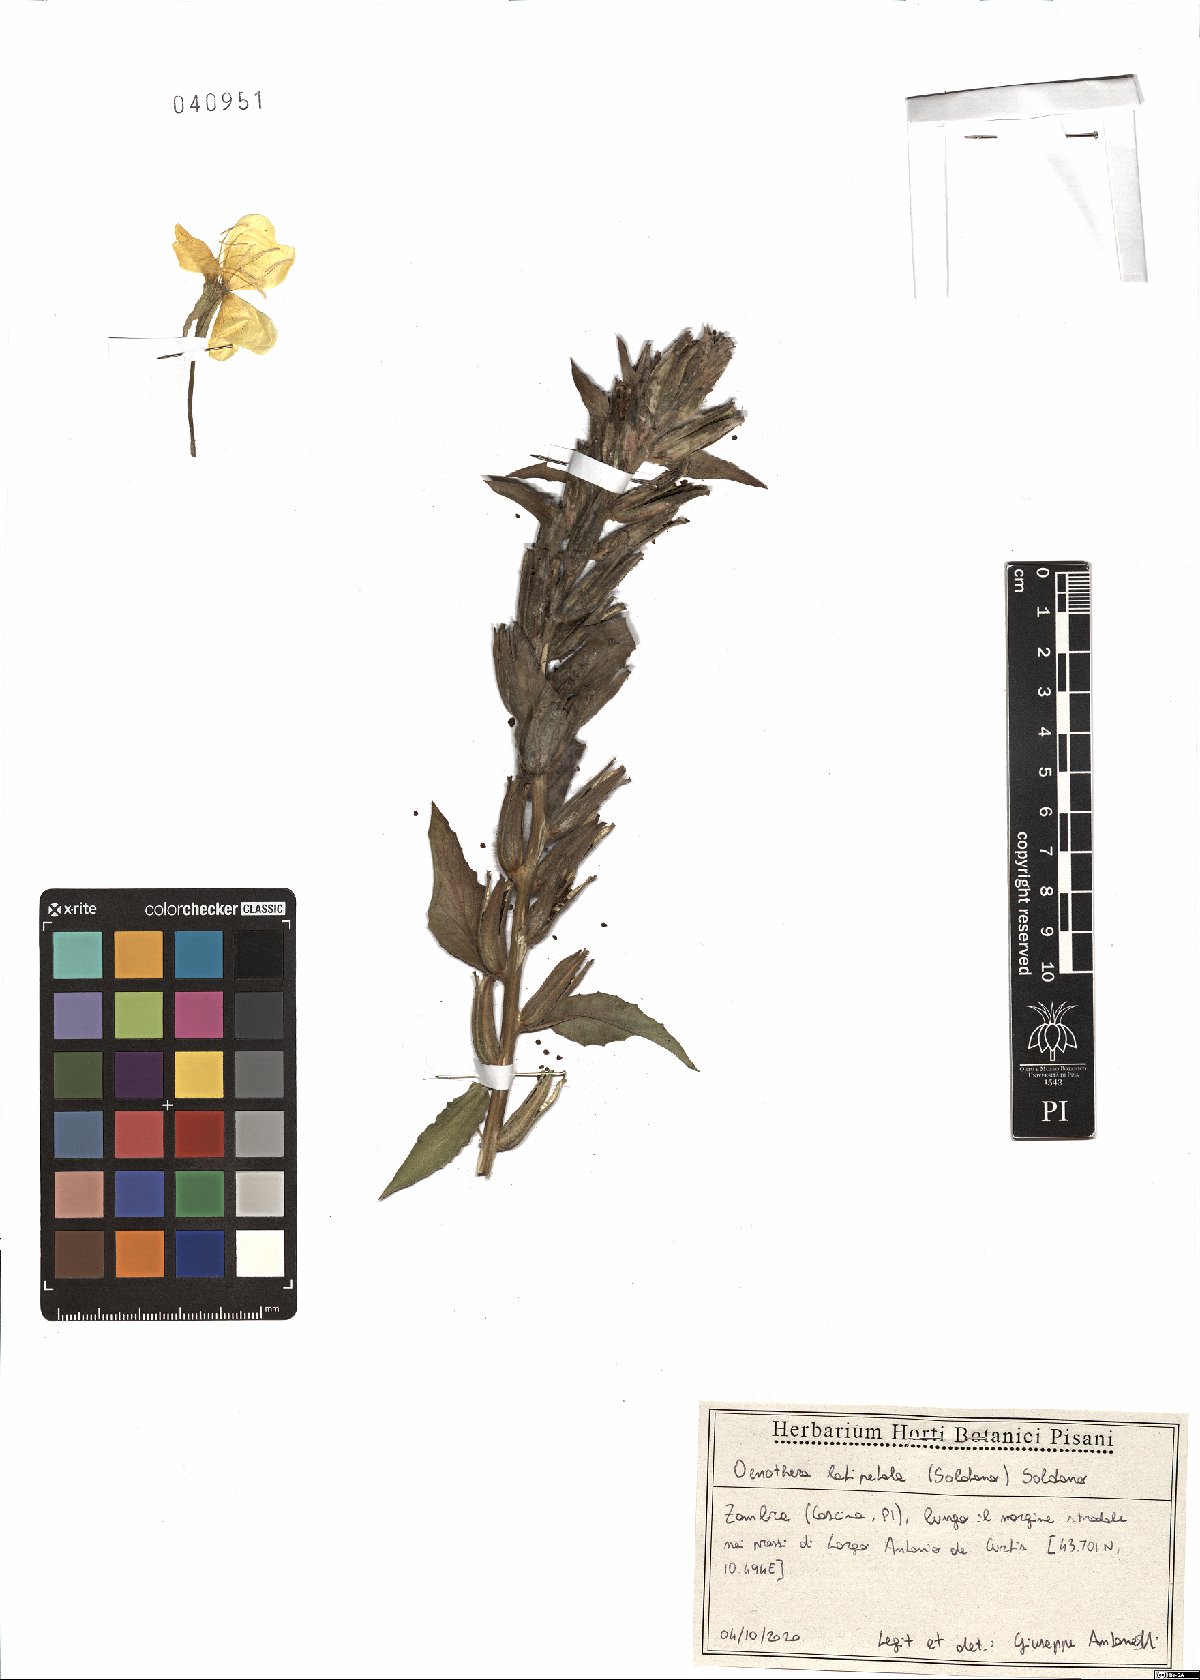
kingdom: Plantae
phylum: Tracheophyta
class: Magnoliopsida
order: Myrtales
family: Onagraceae
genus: Oenothera
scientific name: Oenothera latipetala
